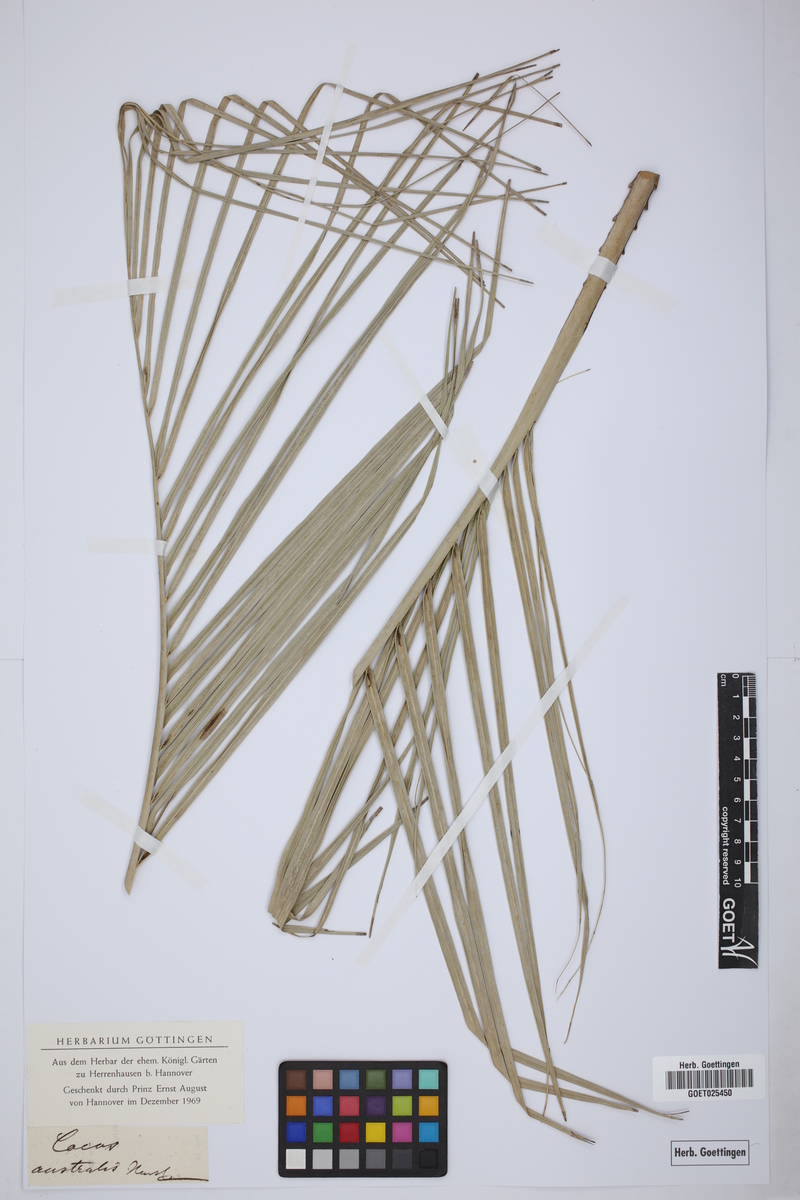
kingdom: Plantae
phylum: Tracheophyta
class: Liliopsida
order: Arecales
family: Arecaceae
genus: Syagrus
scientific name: Syagrus romanzoffiana
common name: Queen palm
